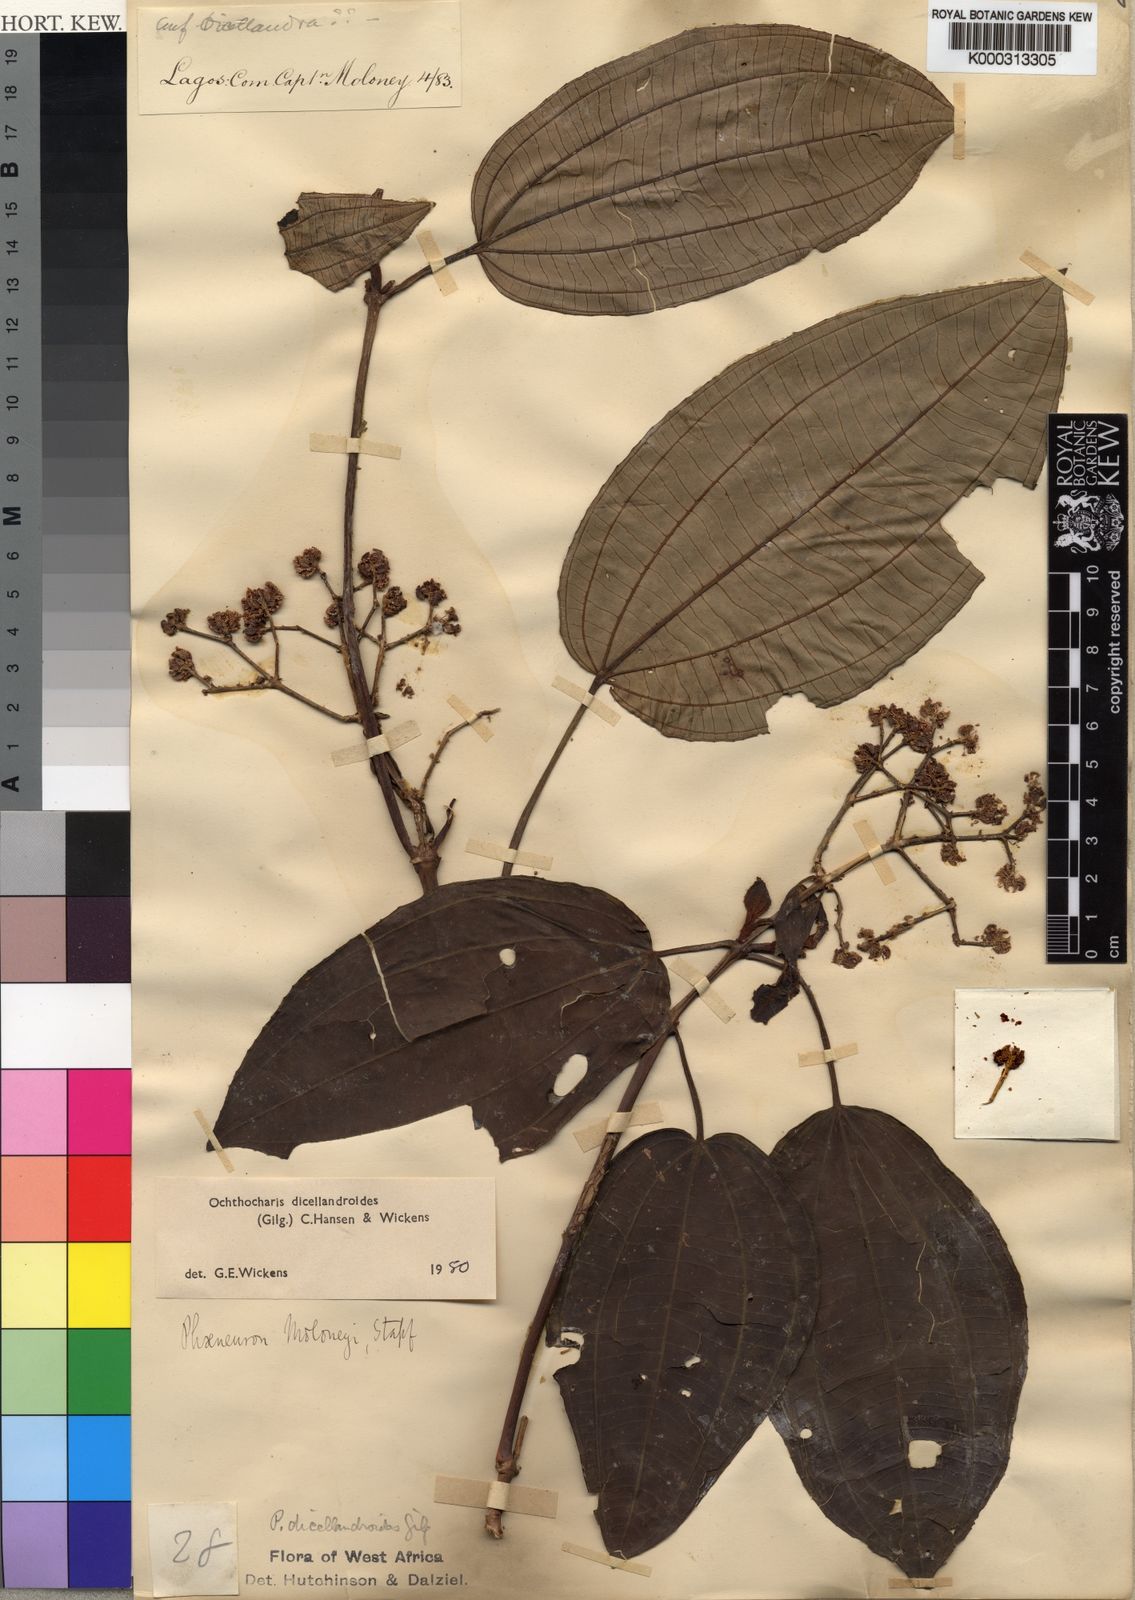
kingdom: Plantae
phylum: Tracheophyta
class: Magnoliopsida
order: Myrtales
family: Melastomataceae
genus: Ochthocharis
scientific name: Ochthocharis dicellandroides
